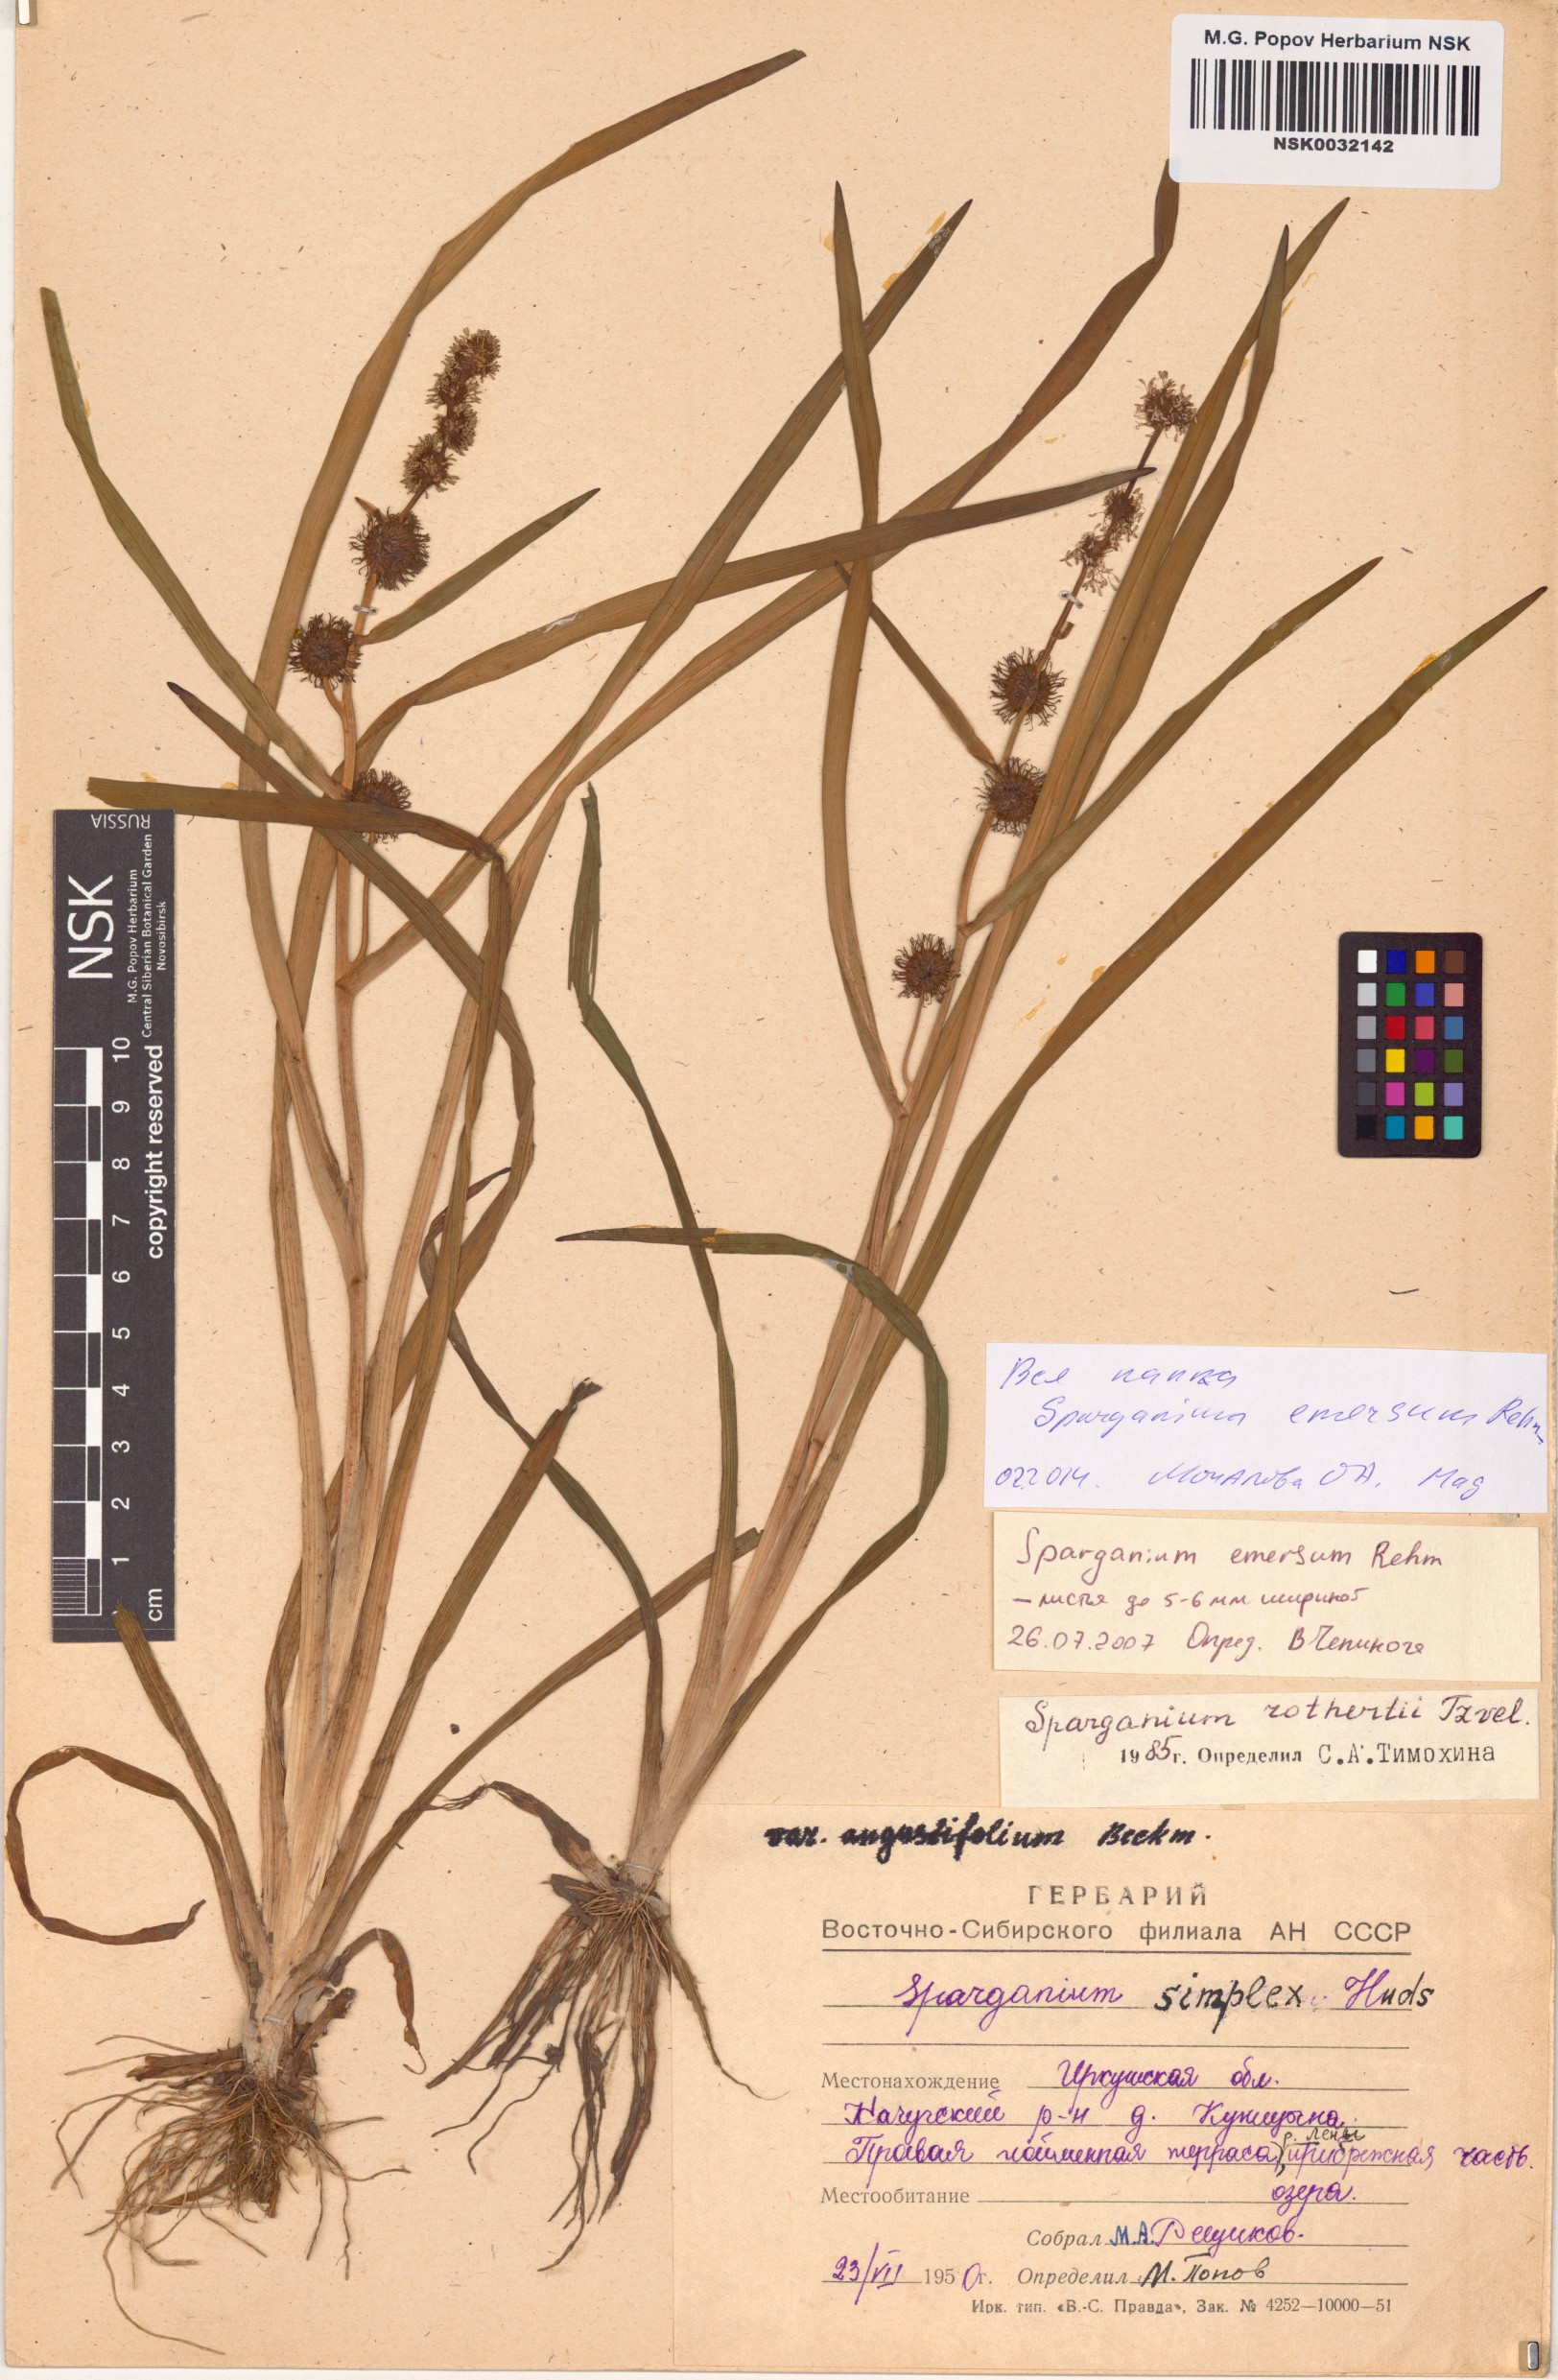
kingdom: Plantae
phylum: Tracheophyta
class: Liliopsida
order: Poales
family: Typhaceae
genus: Sparganium
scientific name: Sparganium emersum
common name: Unbranched bur-reed
